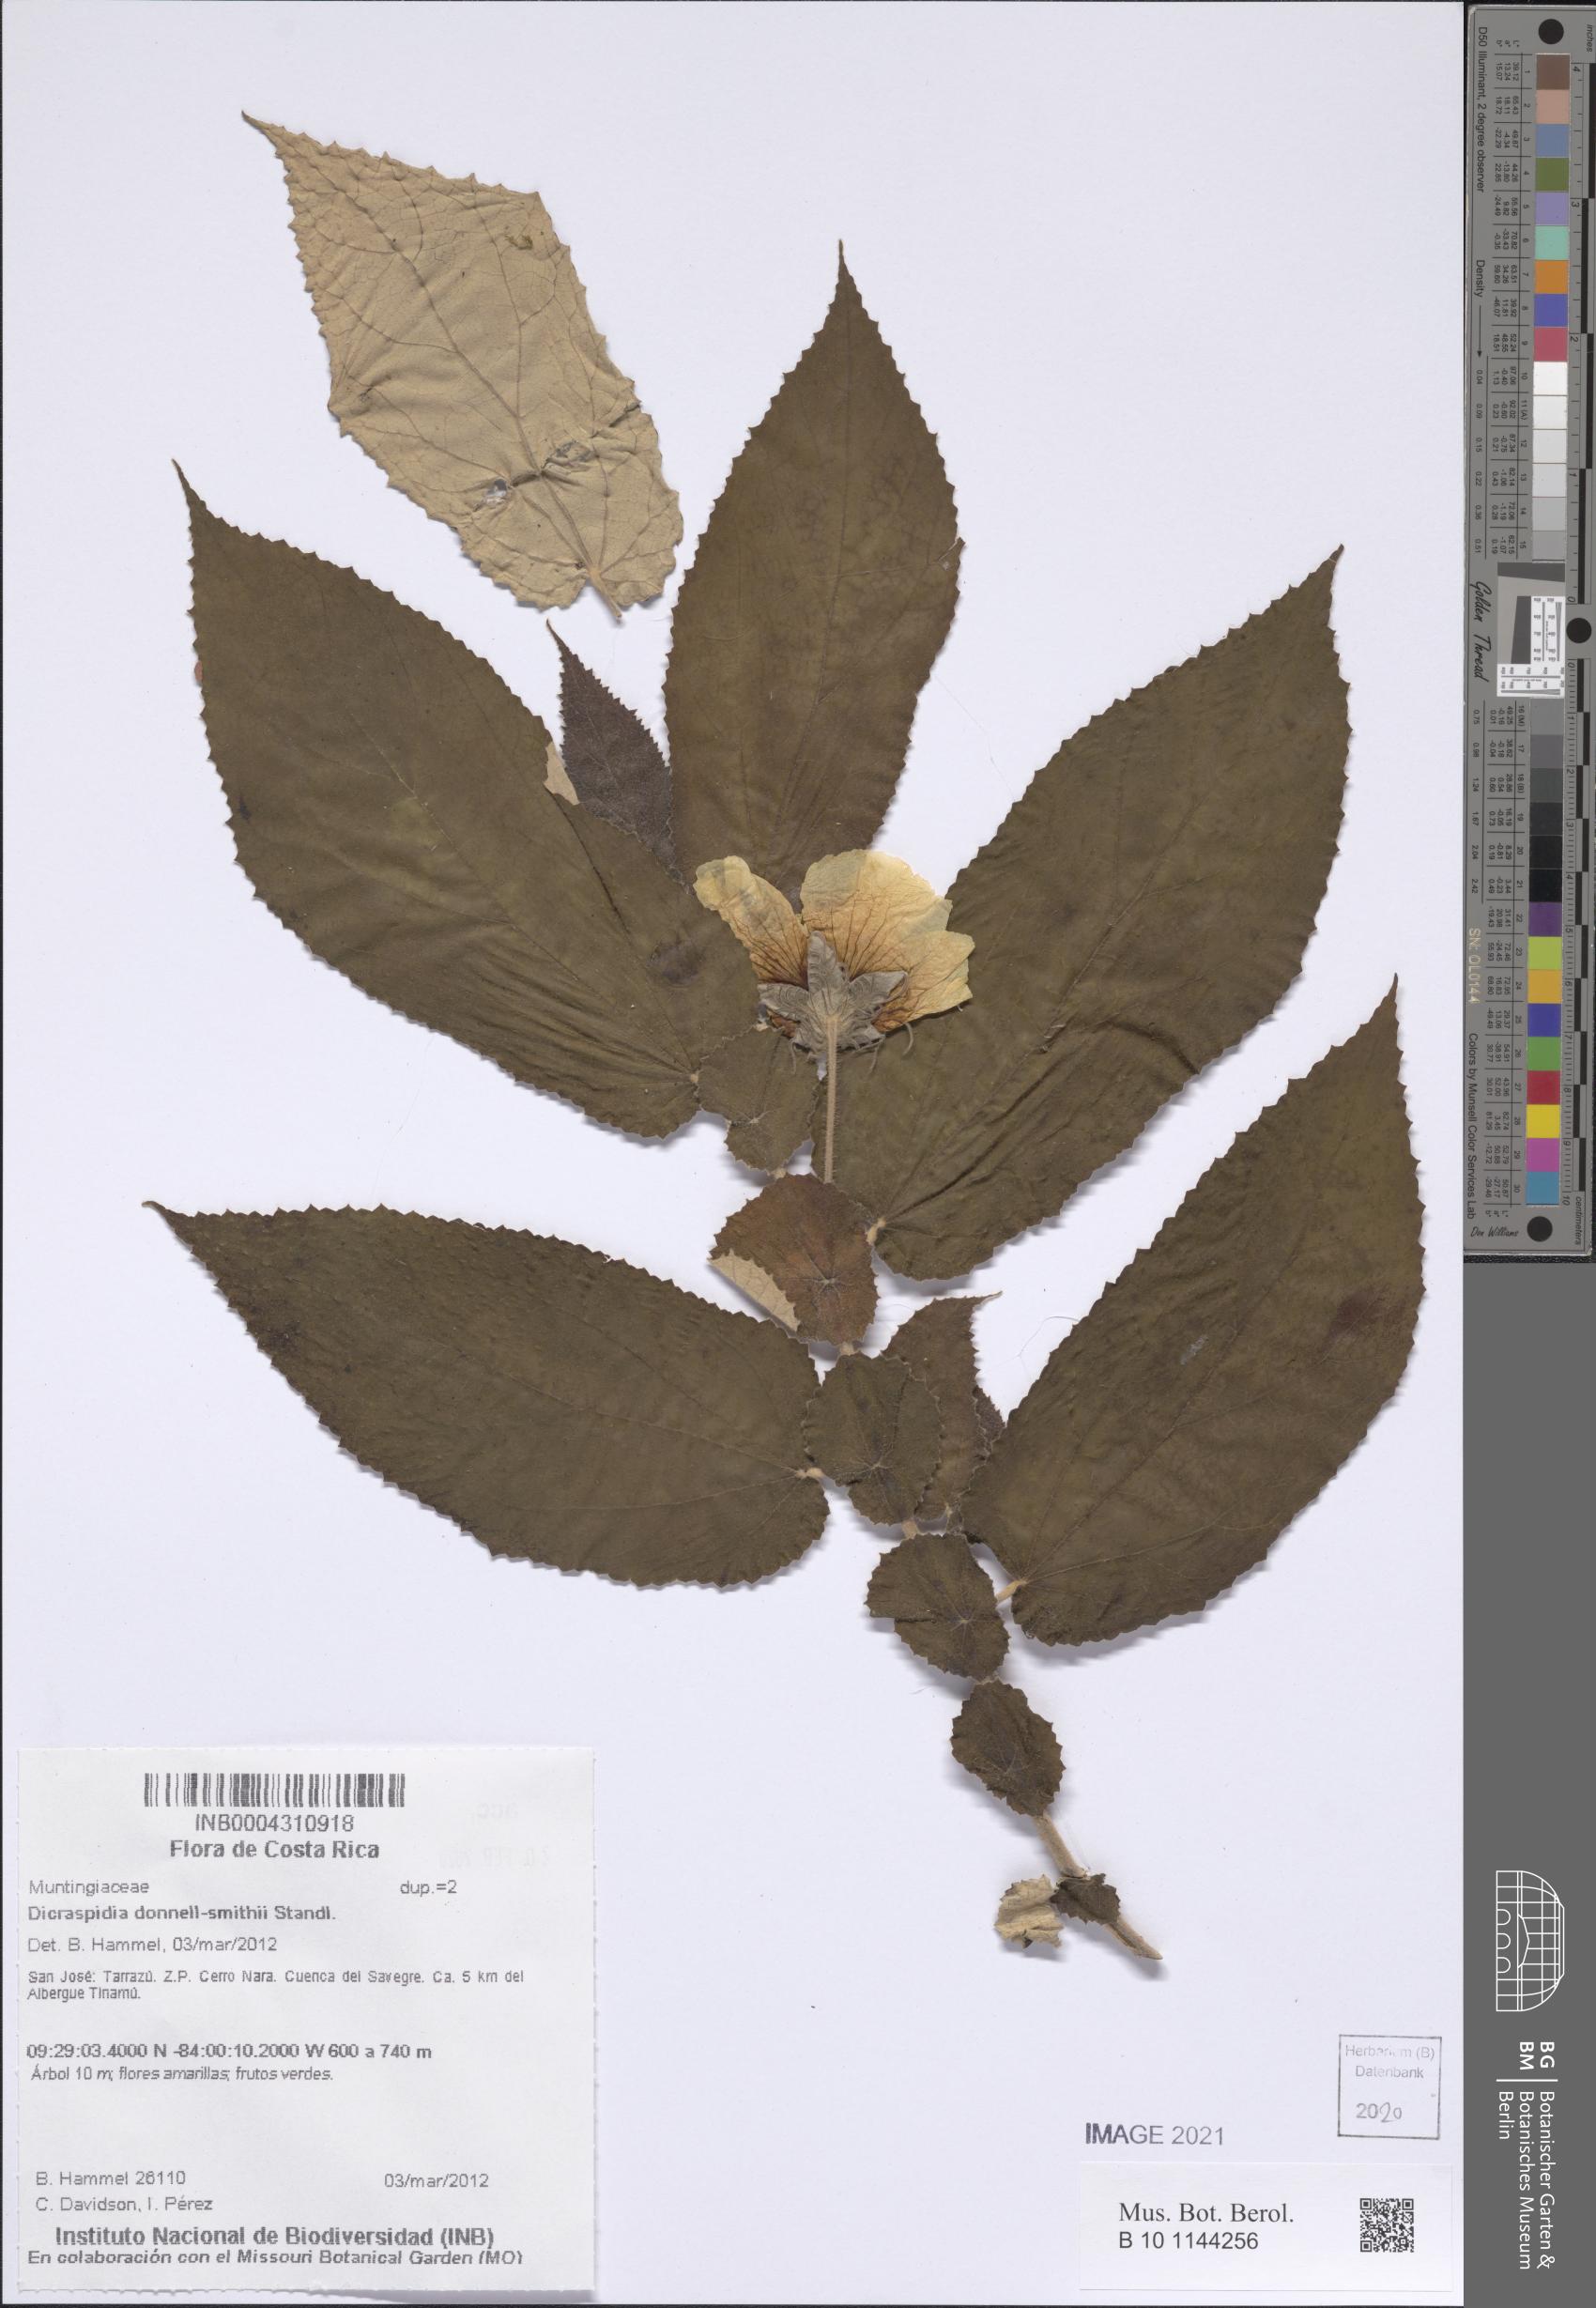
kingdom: Plantae
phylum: Tracheophyta
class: Magnoliopsida
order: Malvales
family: Muntingiaceae
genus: Dicraspidia
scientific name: Dicraspidia donnell-smithii
